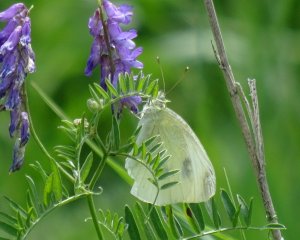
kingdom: Animalia
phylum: Arthropoda
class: Insecta
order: Lepidoptera
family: Pieridae
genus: Pieris
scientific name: Pieris rapae
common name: Cabbage White
